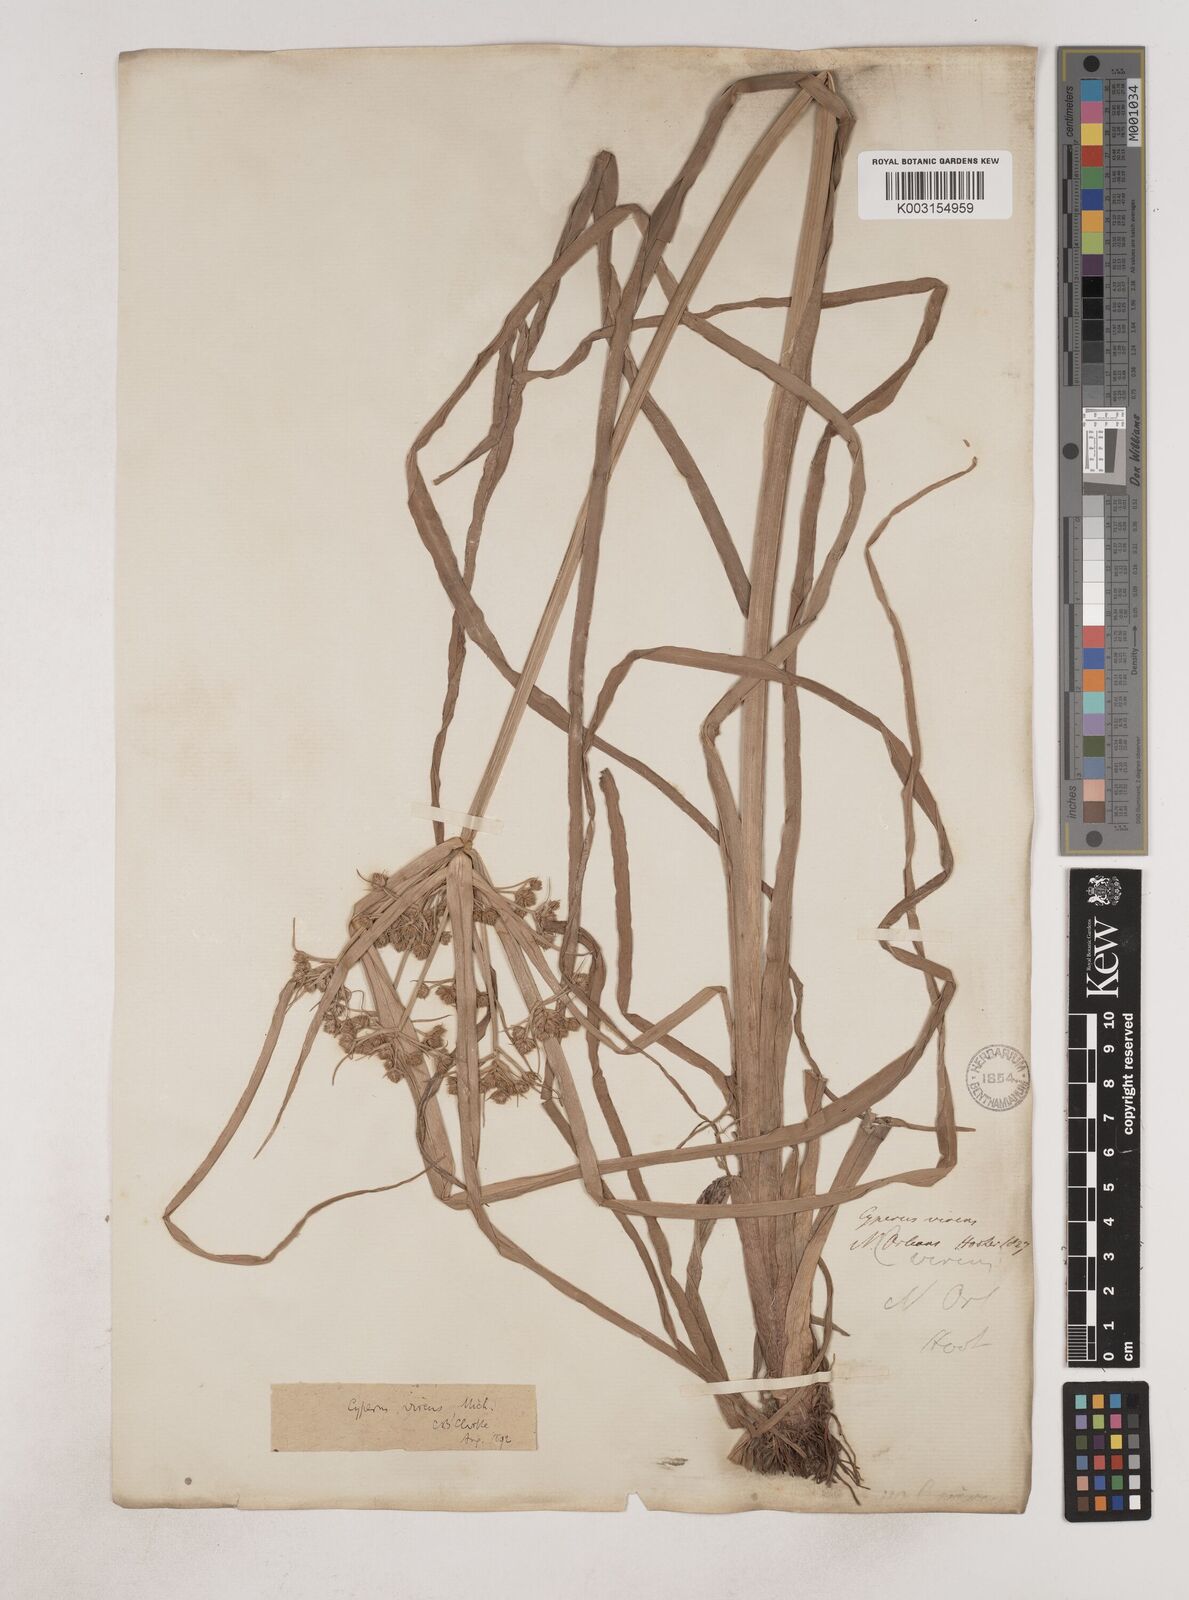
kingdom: Plantae
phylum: Tracheophyta
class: Liliopsida
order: Poales
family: Cyperaceae
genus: Cyperus
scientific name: Cyperus virens
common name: Green flatsedge
